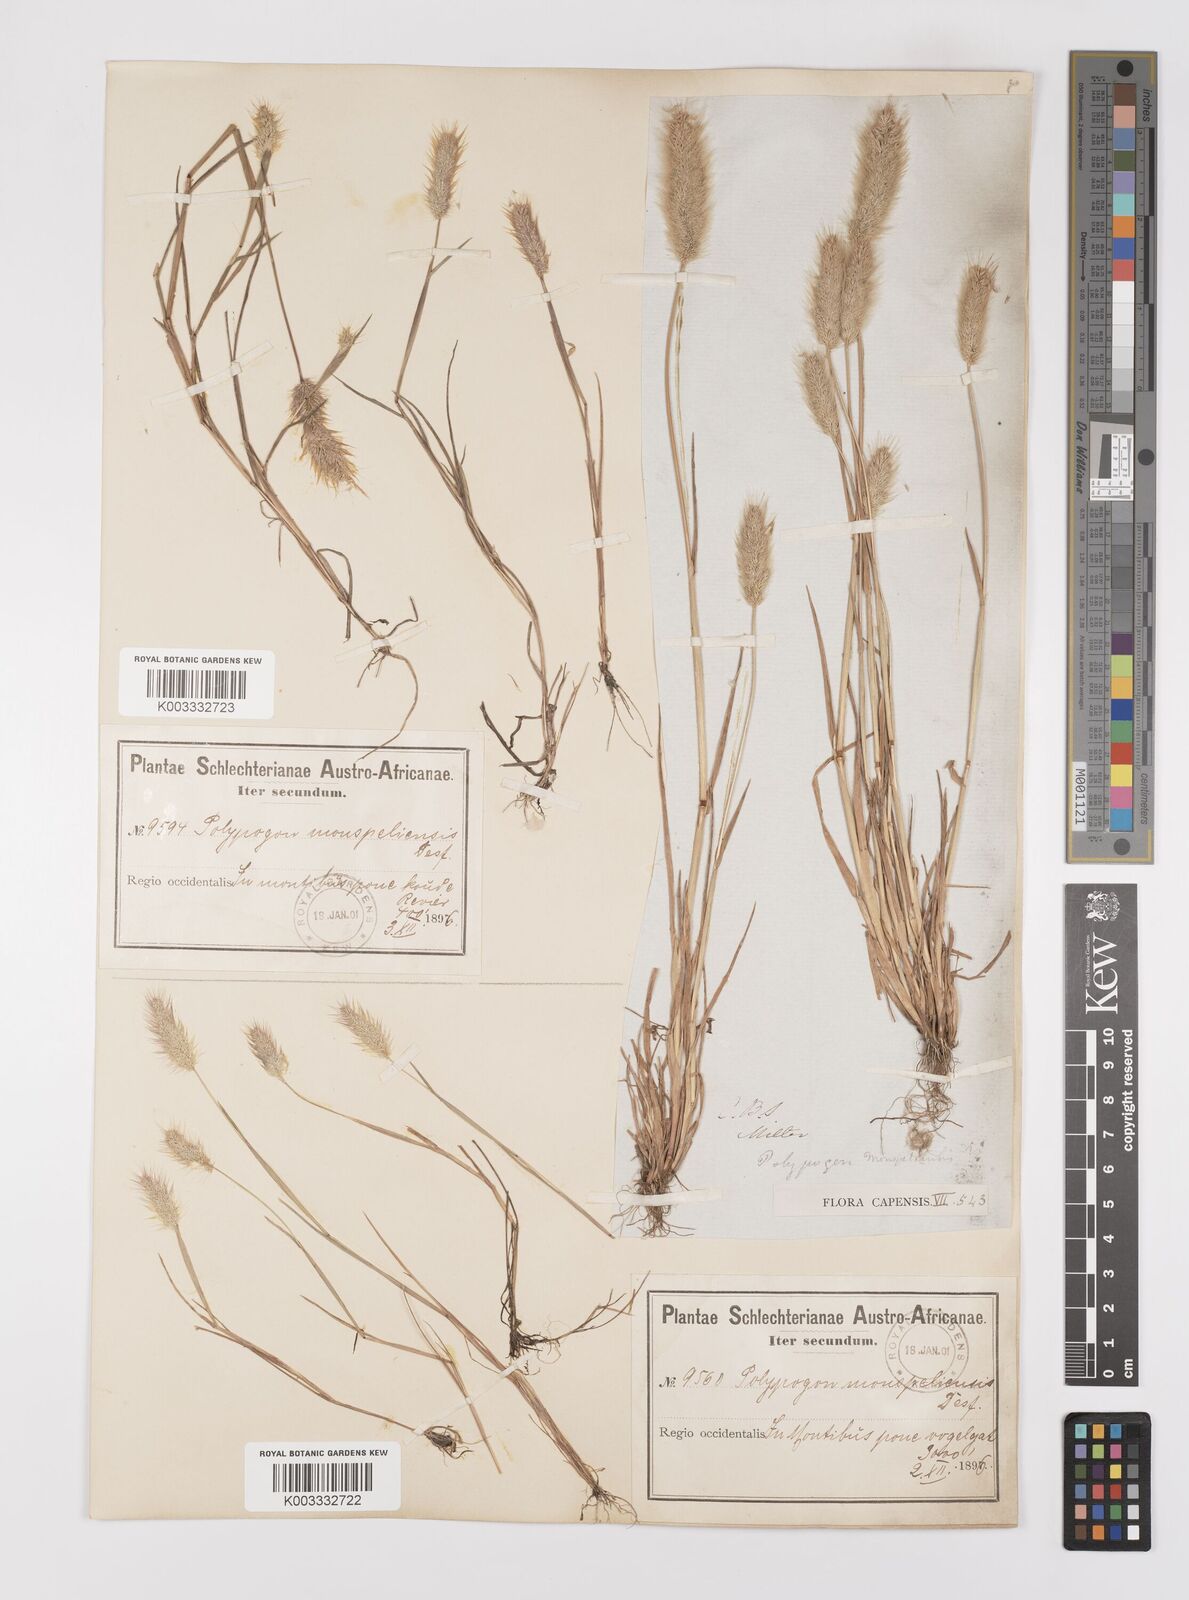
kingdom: Plantae
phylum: Tracheophyta
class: Liliopsida
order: Poales
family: Poaceae
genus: Polypogon
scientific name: Polypogon monspeliensis
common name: Annual rabbitsfoot grass
